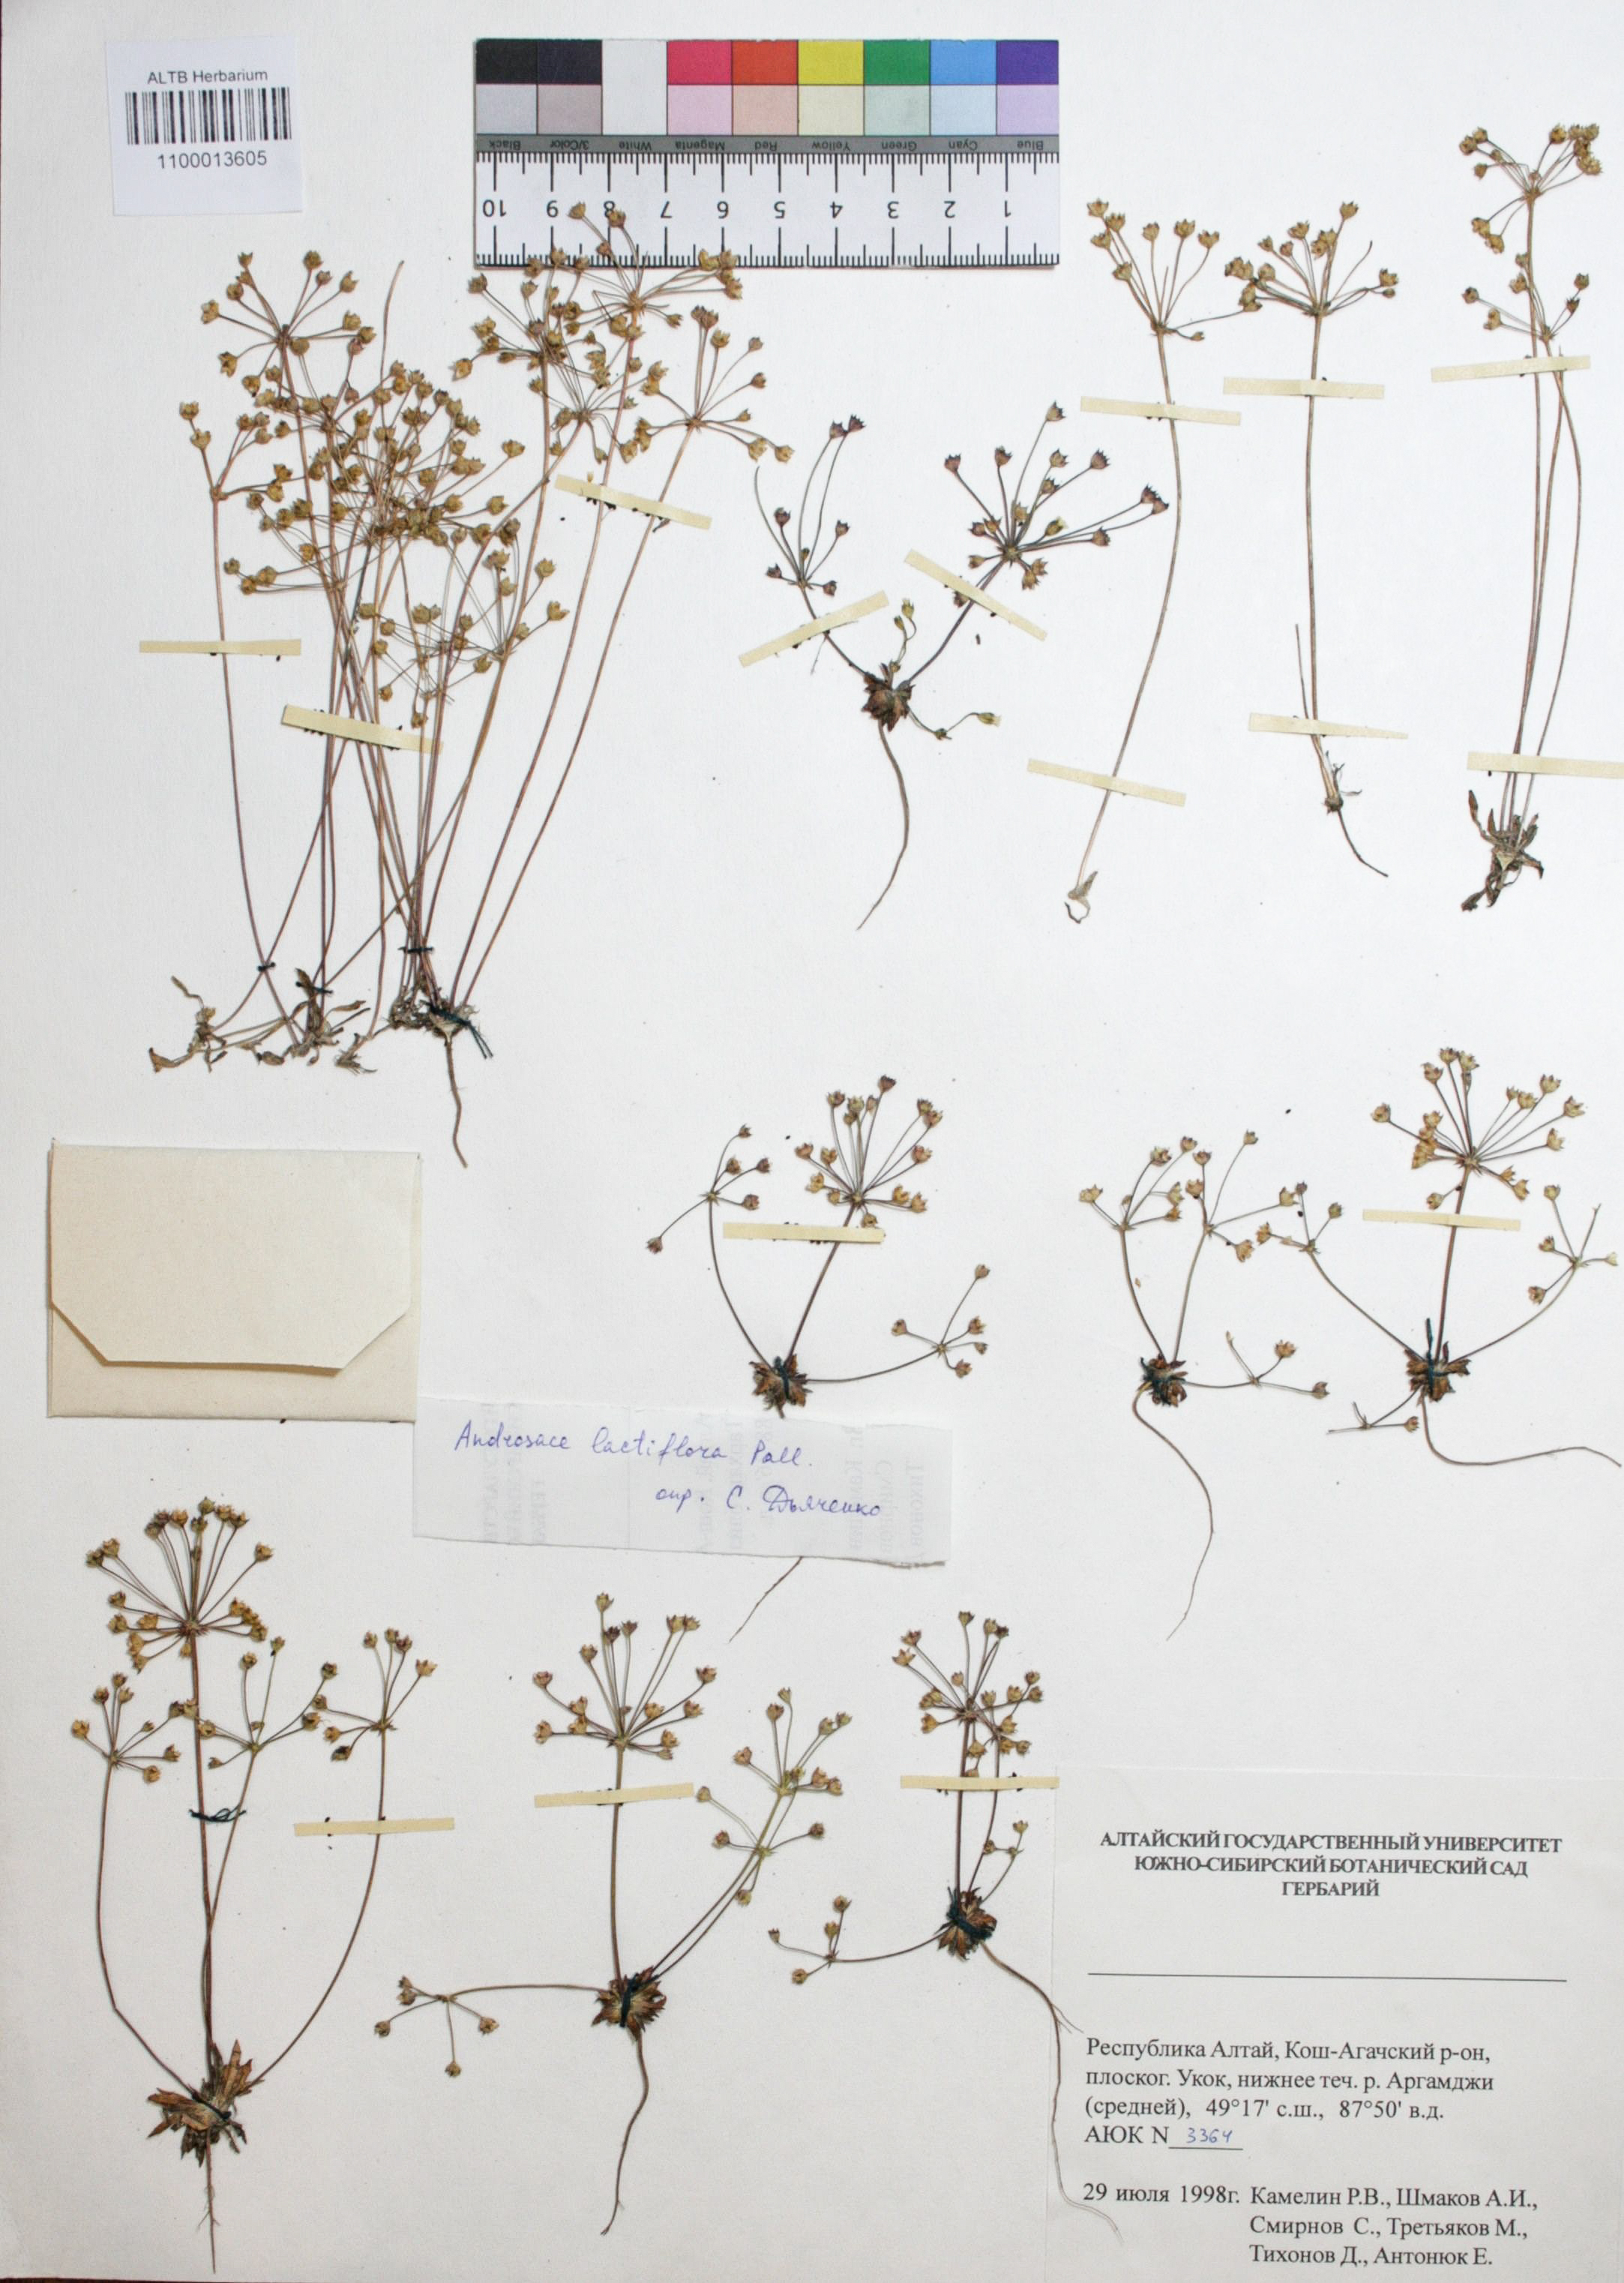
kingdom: Plantae
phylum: Tracheophyta
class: Magnoliopsida
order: Ericales
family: Primulaceae
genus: Androsace
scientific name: Androsace lactiflora
